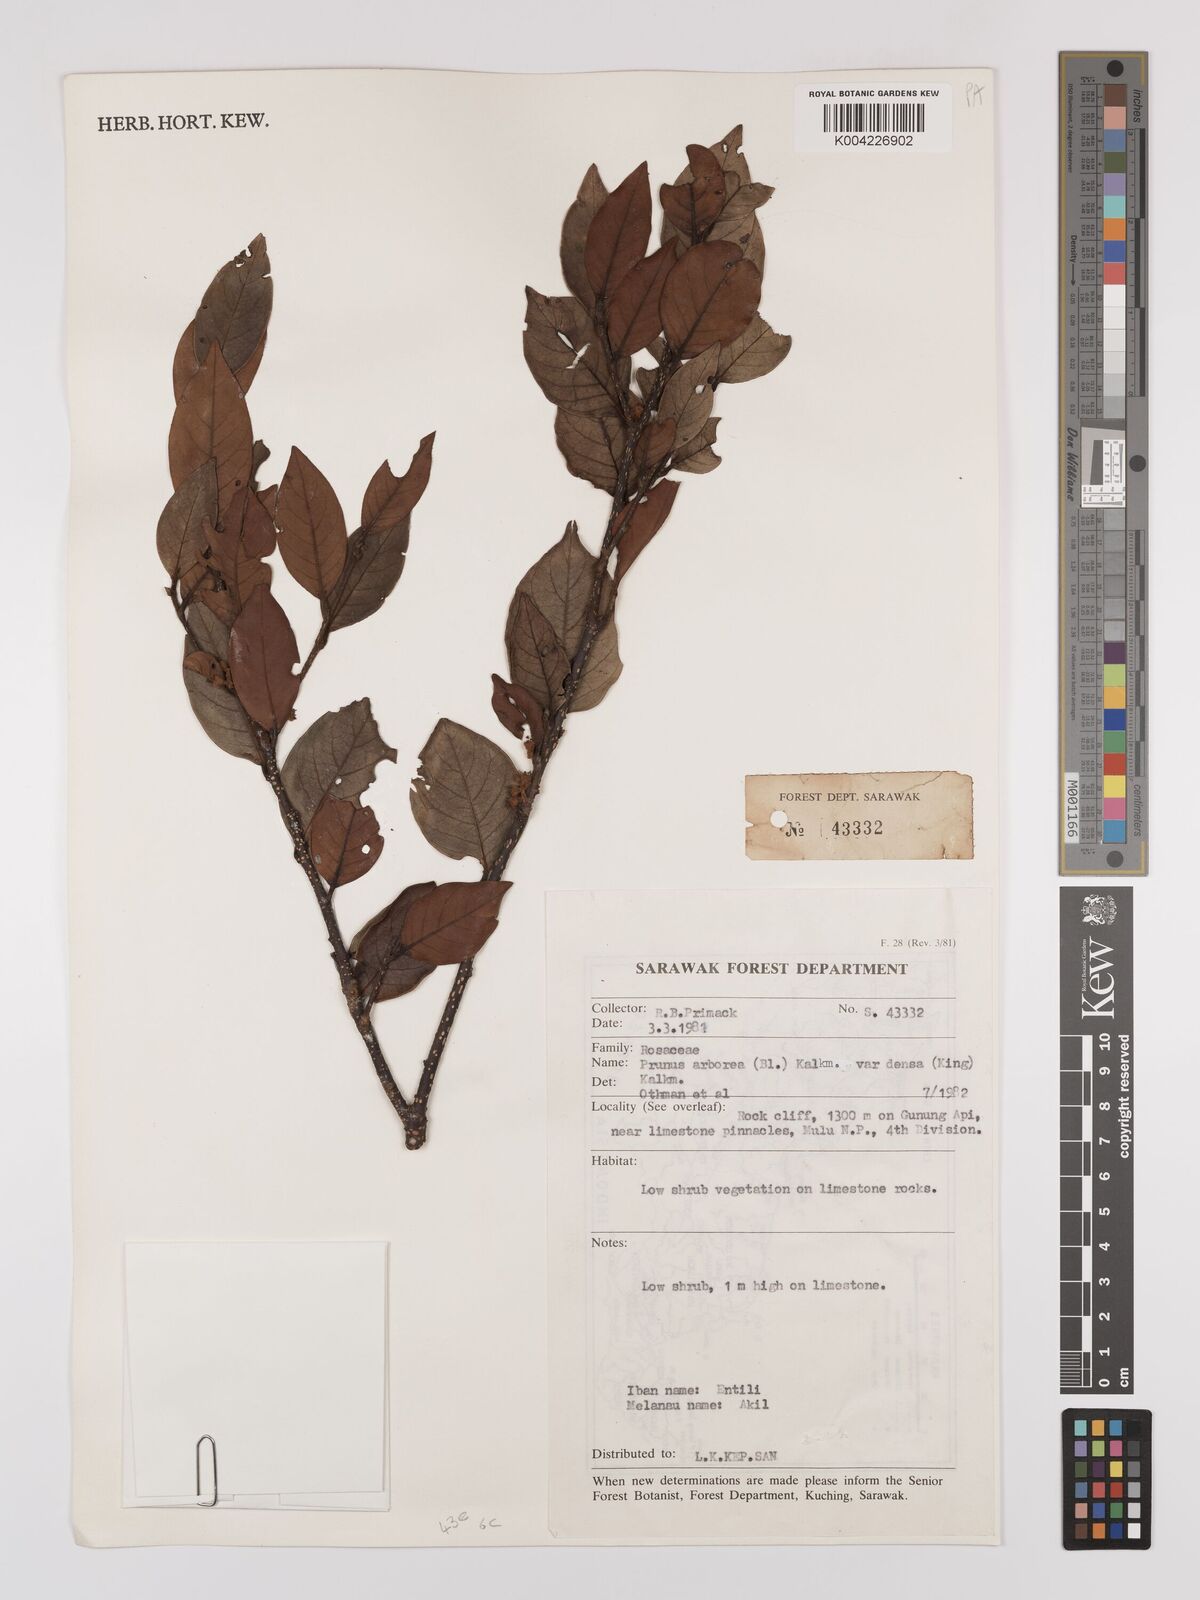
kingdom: Plantae
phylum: Tracheophyta
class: Magnoliopsida
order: Rosales
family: Rosaceae
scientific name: Rosaceae
